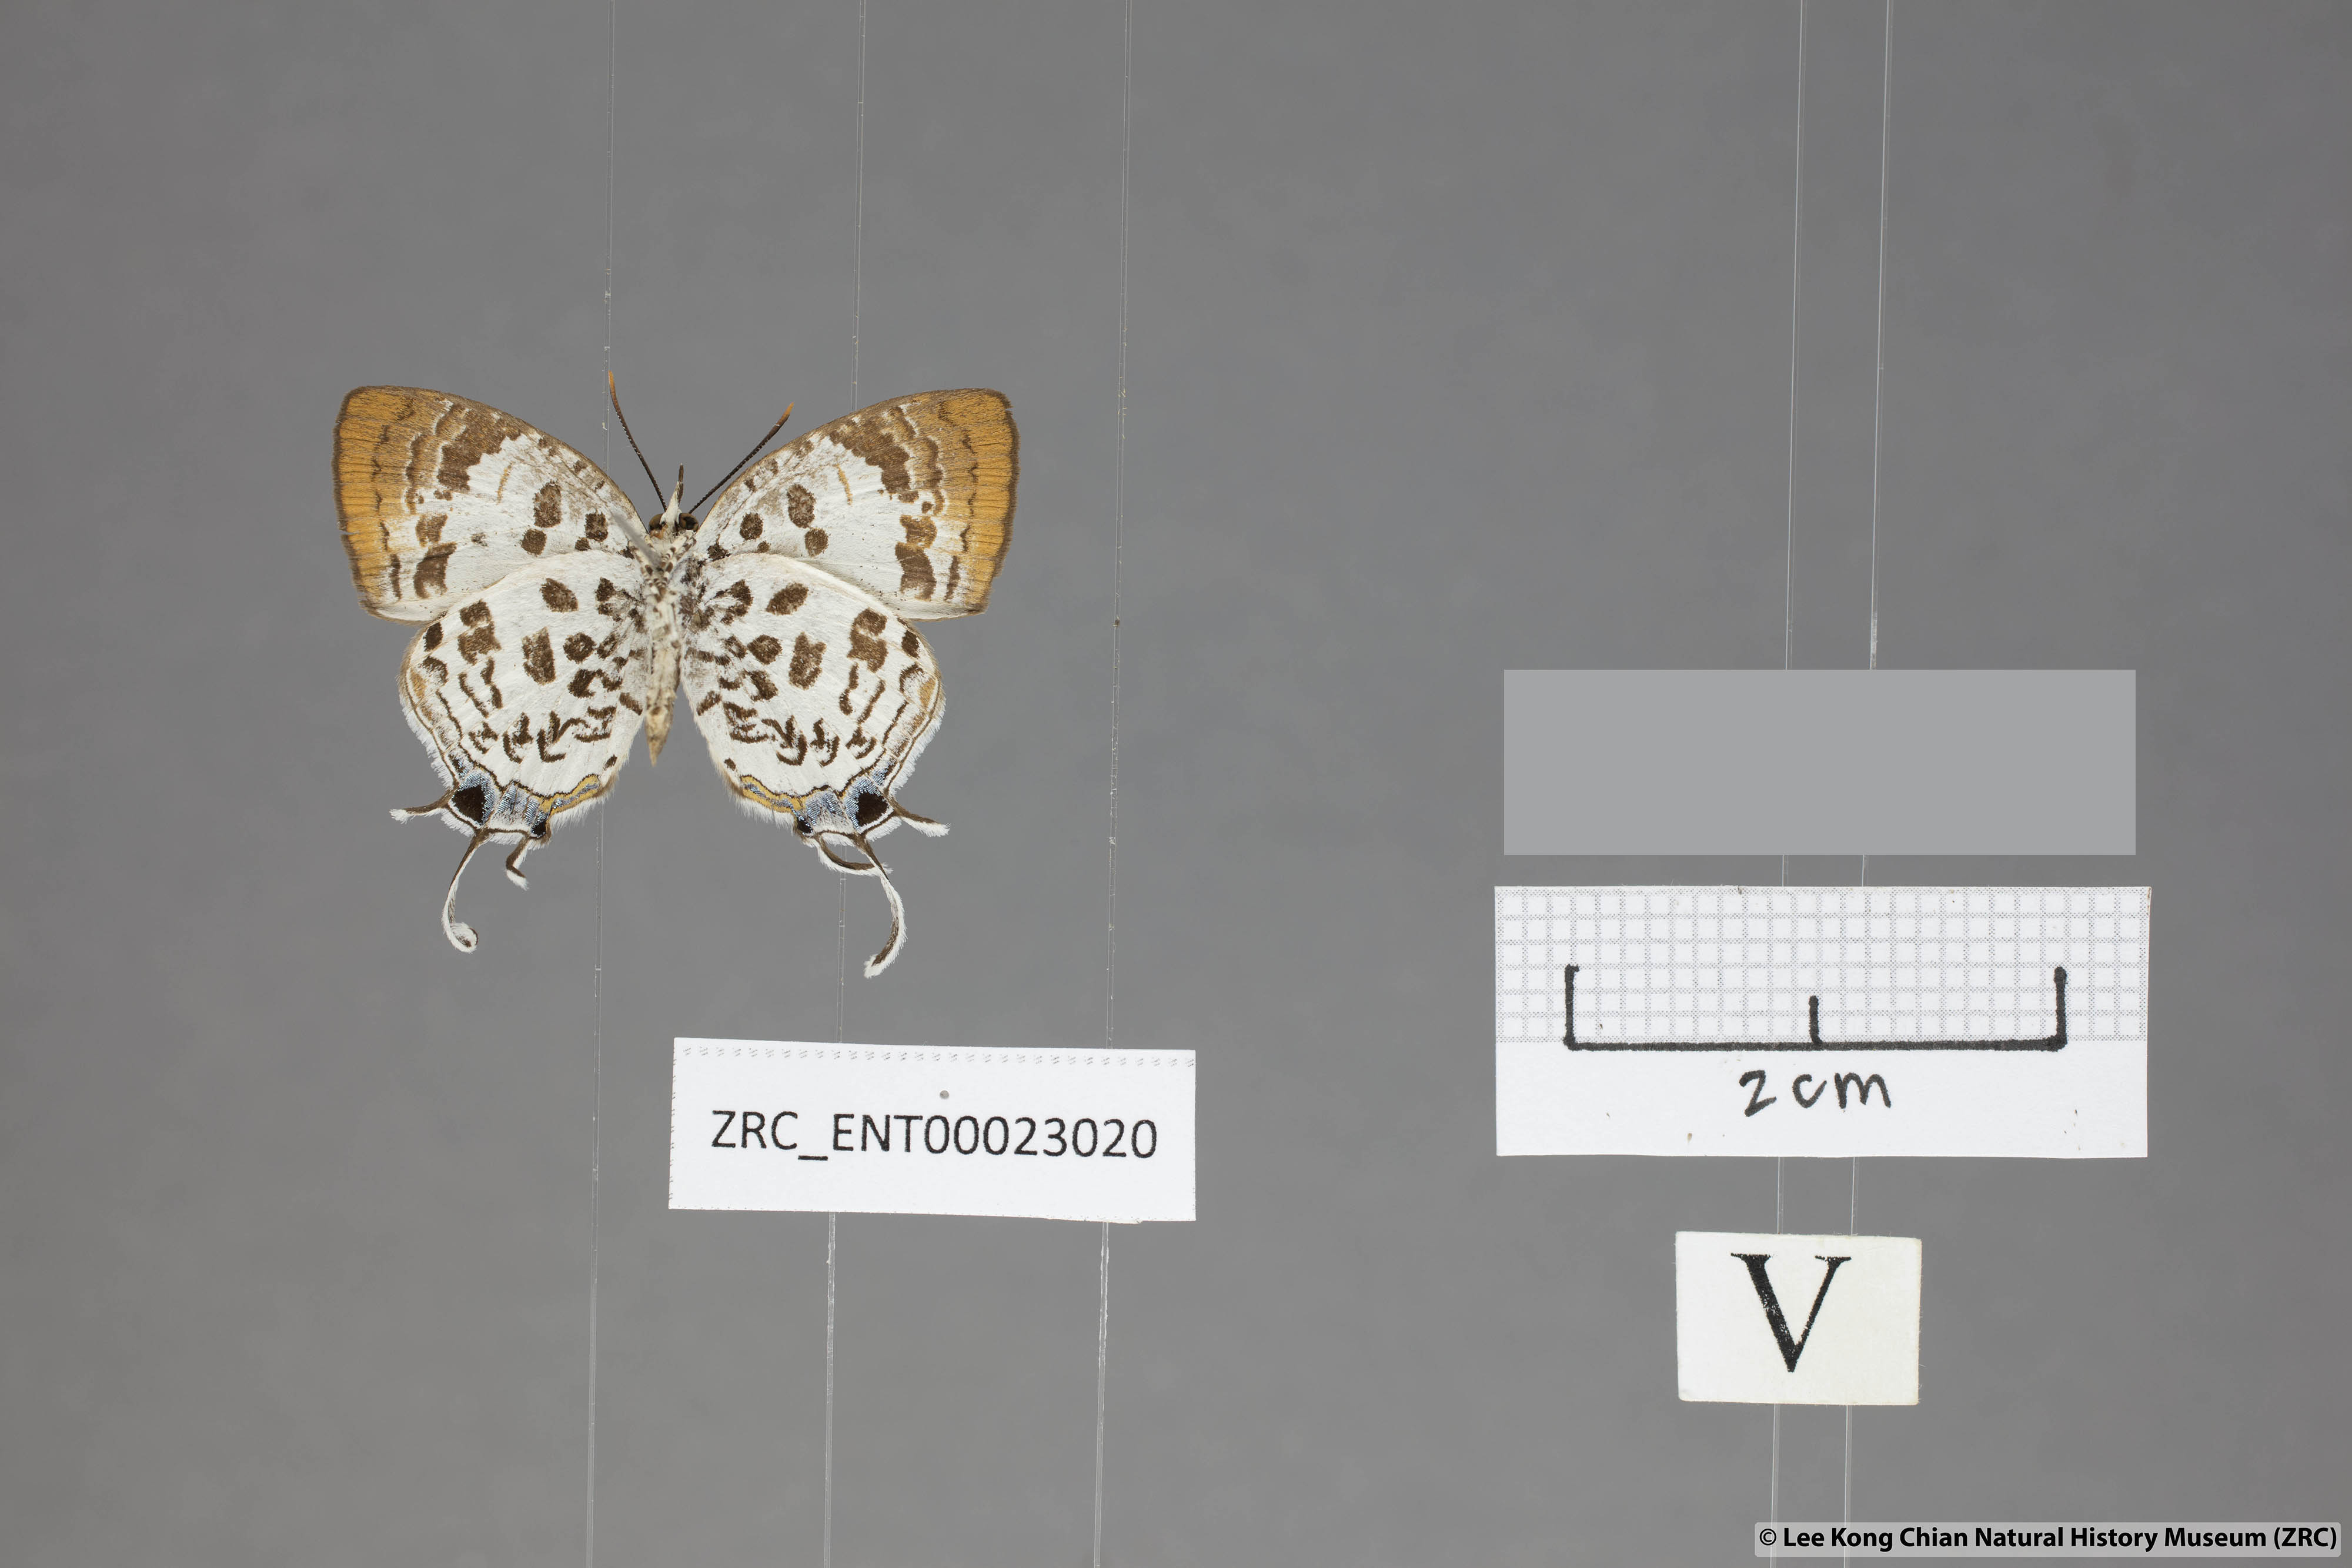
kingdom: Animalia
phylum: Arthropoda
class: Insecta
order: Lepidoptera
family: Lycaenidae
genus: Drupadia
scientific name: Drupadia scaeva
